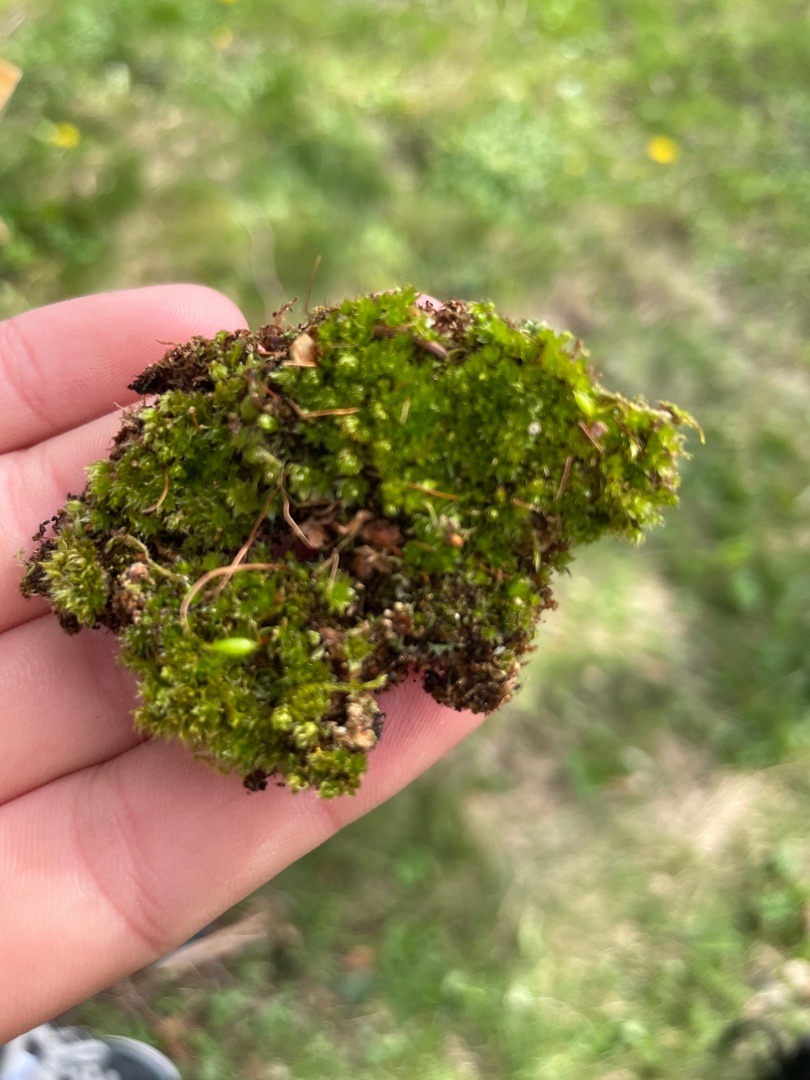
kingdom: Plantae
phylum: Bryophyta
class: Bryopsida
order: Bryales
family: Bryaceae
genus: Rosulabryum
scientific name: Rosulabryum capillare
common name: Hårspidset bryum
